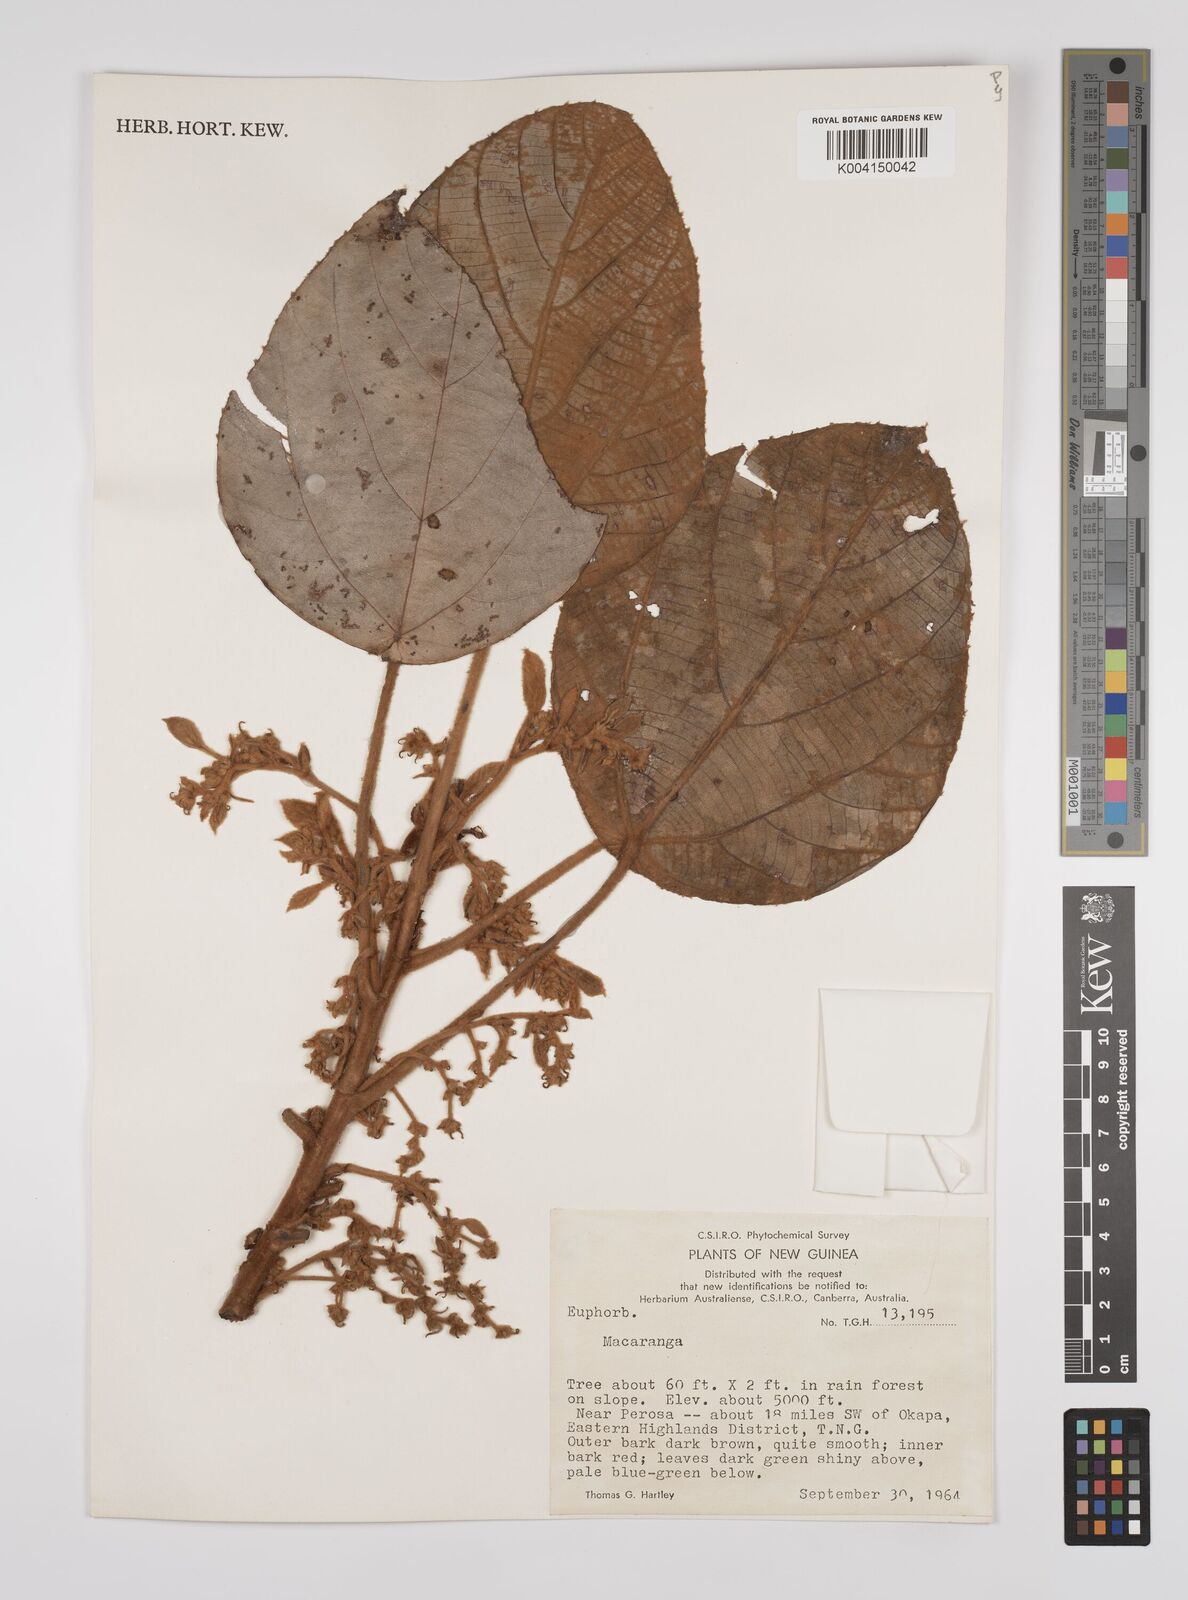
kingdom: Plantae
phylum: Tracheophyta
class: Magnoliopsida
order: Malpighiales
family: Euphorbiaceae
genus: Macaranga
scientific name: Macaranga
